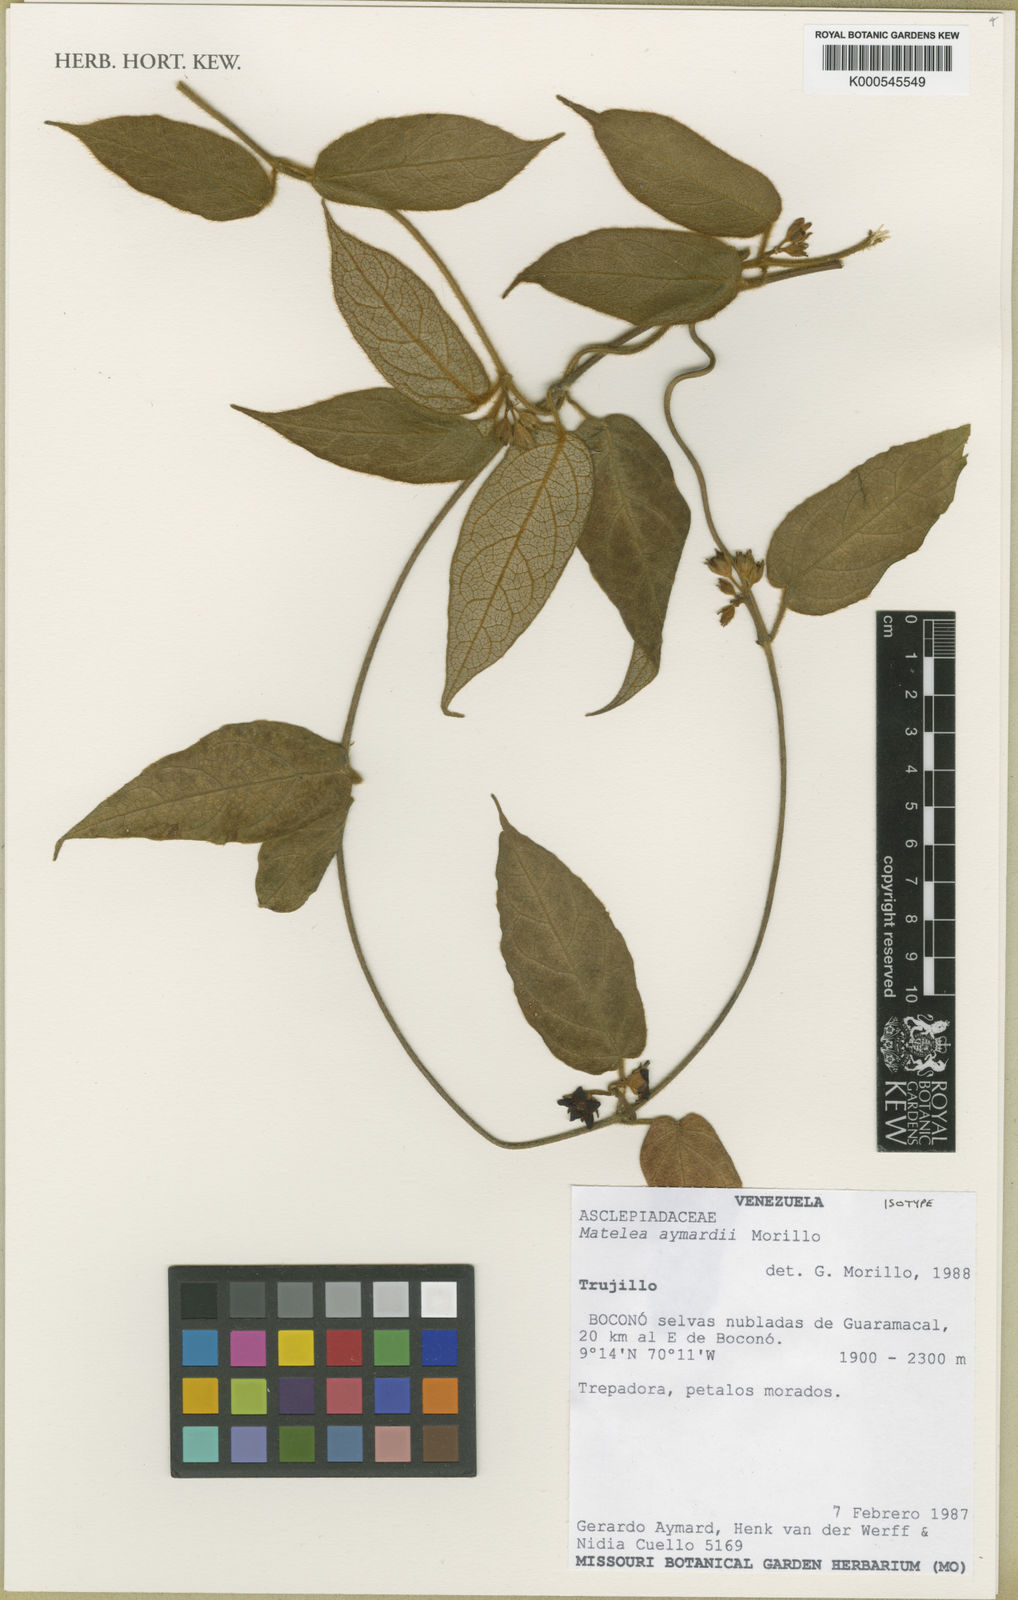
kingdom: Plantae
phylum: Tracheophyta
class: Magnoliopsida
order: Gentianales
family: Apocynaceae
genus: Lachnostoma
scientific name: Lachnostoma aymardii
